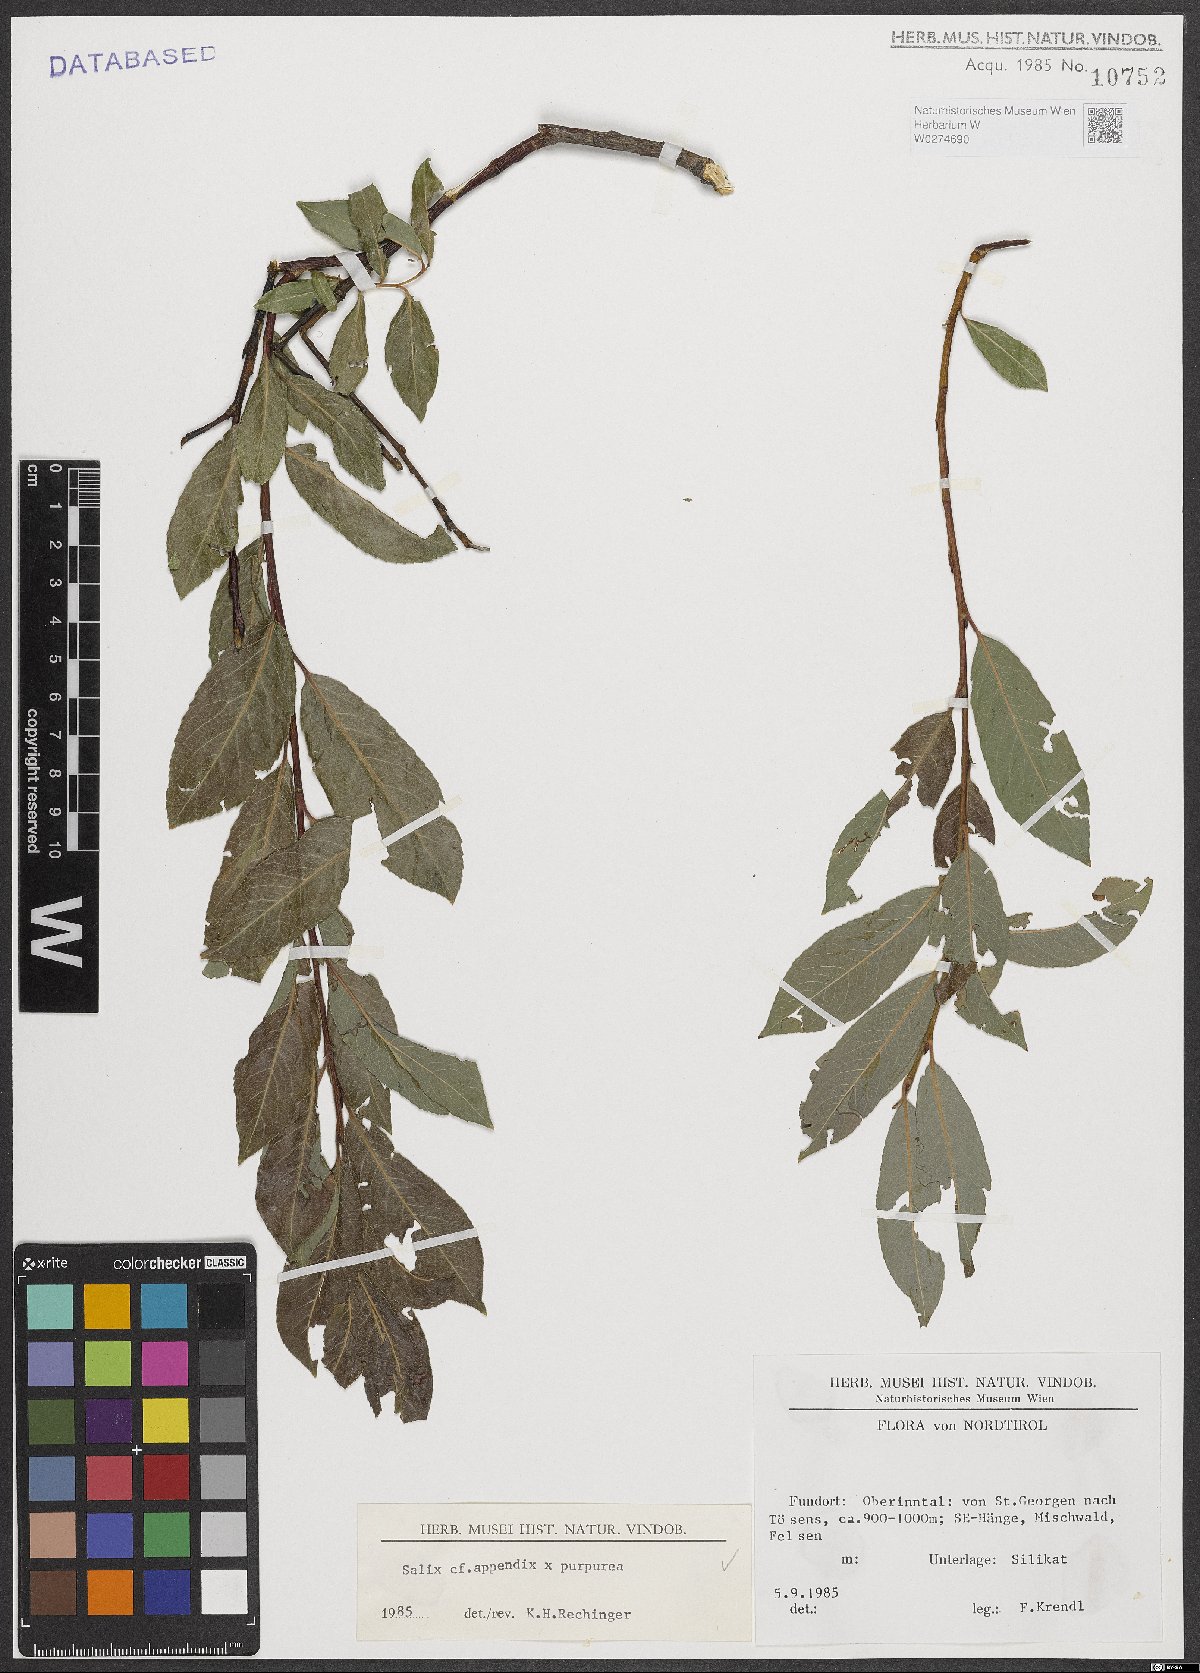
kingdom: Plantae
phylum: Tracheophyta
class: Magnoliopsida
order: Malpighiales
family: Salicaceae
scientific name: Salicaceae
